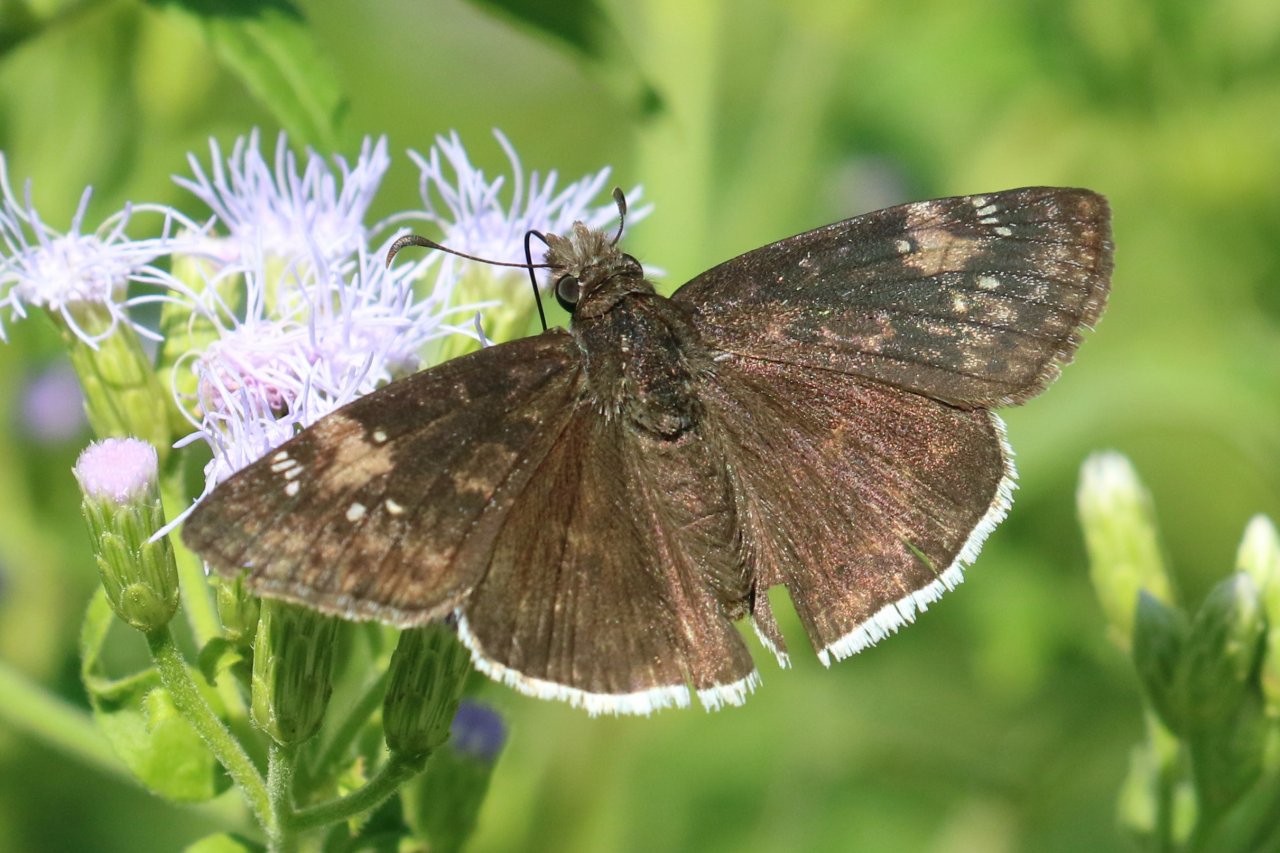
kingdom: Animalia
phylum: Arthropoda
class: Insecta
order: Lepidoptera
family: Hesperiidae
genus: Erynnis
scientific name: Erynnis funeralis
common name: Funereal Duskywing
